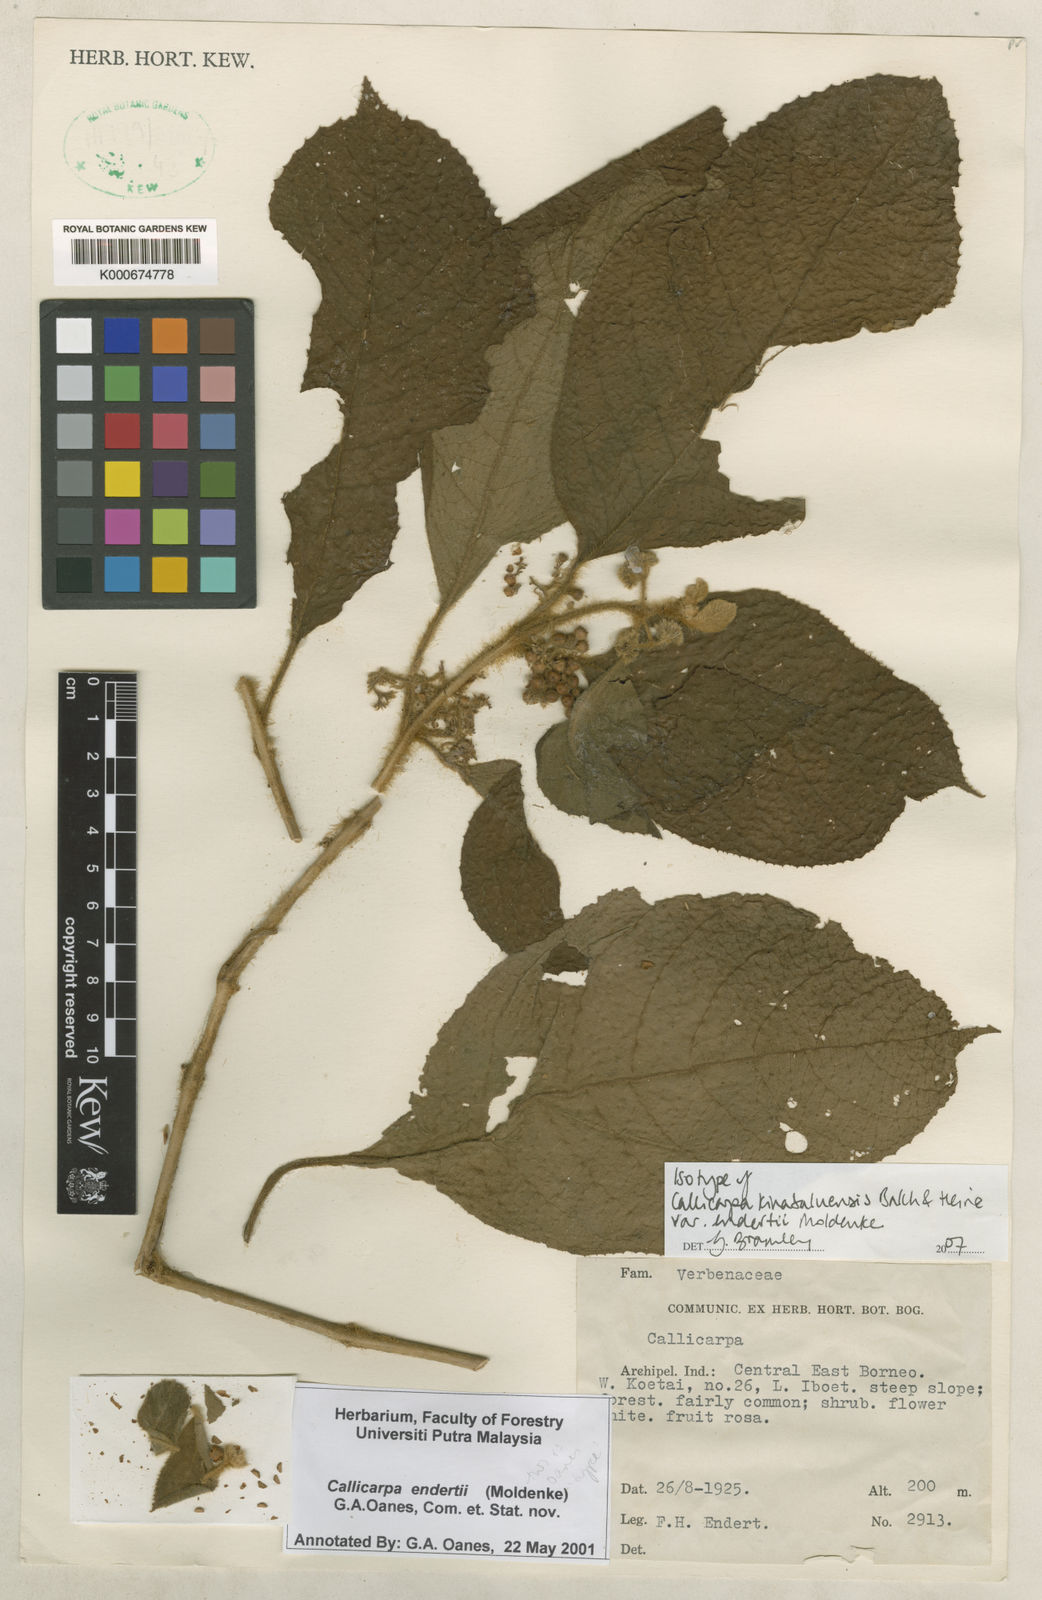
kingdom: Plantae
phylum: Tracheophyta
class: Magnoliopsida
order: Lamiales
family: Lamiaceae
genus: Callicarpa
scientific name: Callicarpa endertii
